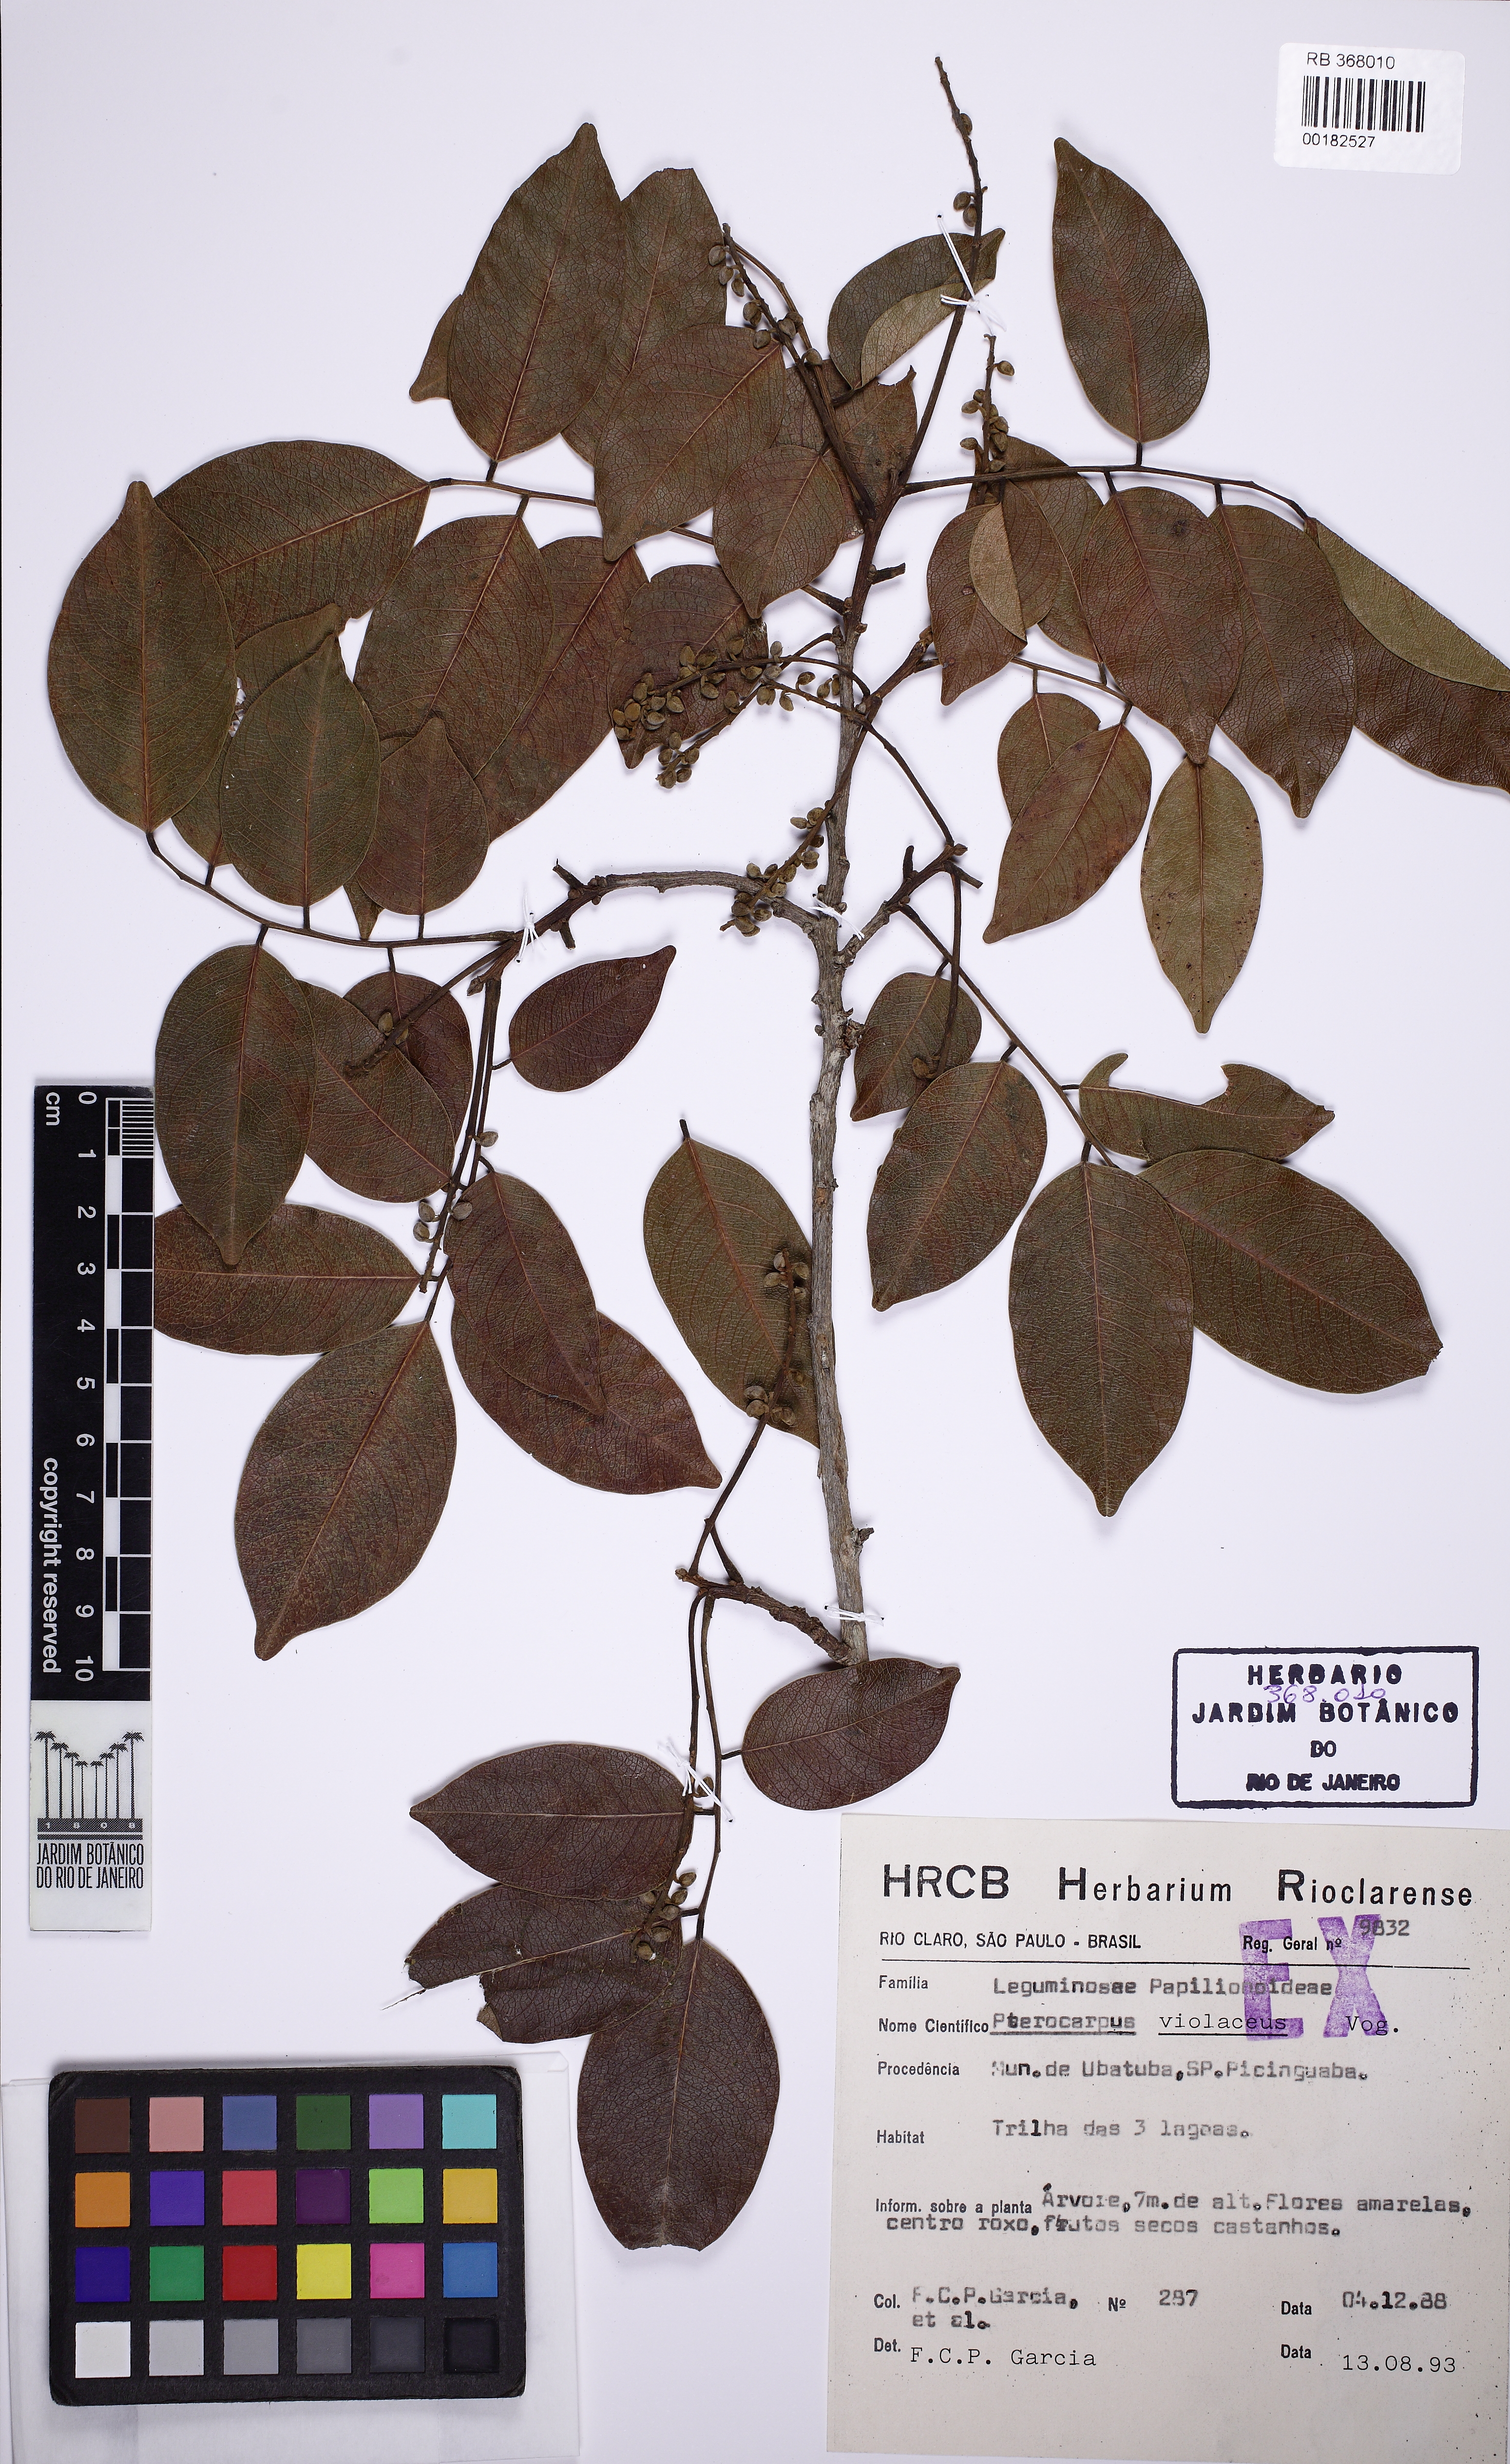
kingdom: Plantae
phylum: Tracheophyta
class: Magnoliopsida
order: Fabales
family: Fabaceae
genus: Pterocarpus
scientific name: Pterocarpus rohrii
